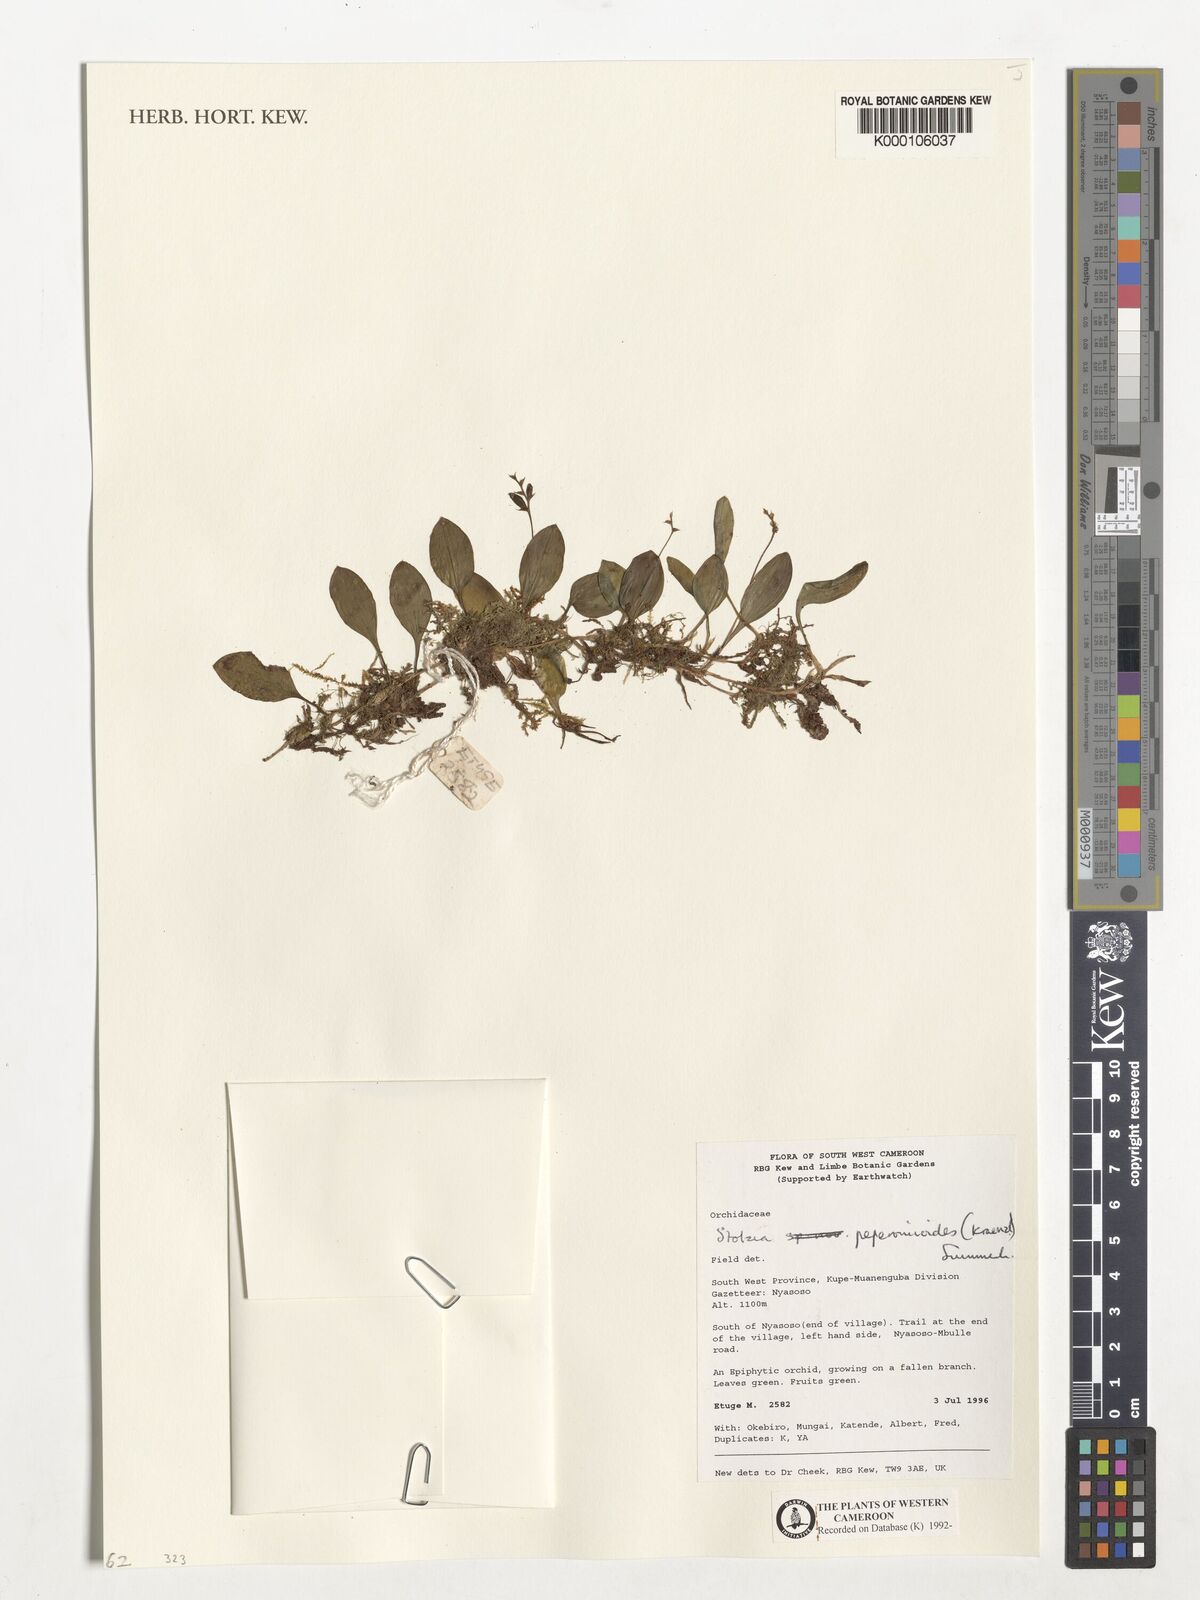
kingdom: Plantae
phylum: Tracheophyta
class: Liliopsida
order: Asparagales
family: Orchidaceae
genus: Porpax
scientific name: Porpax peperomioides
